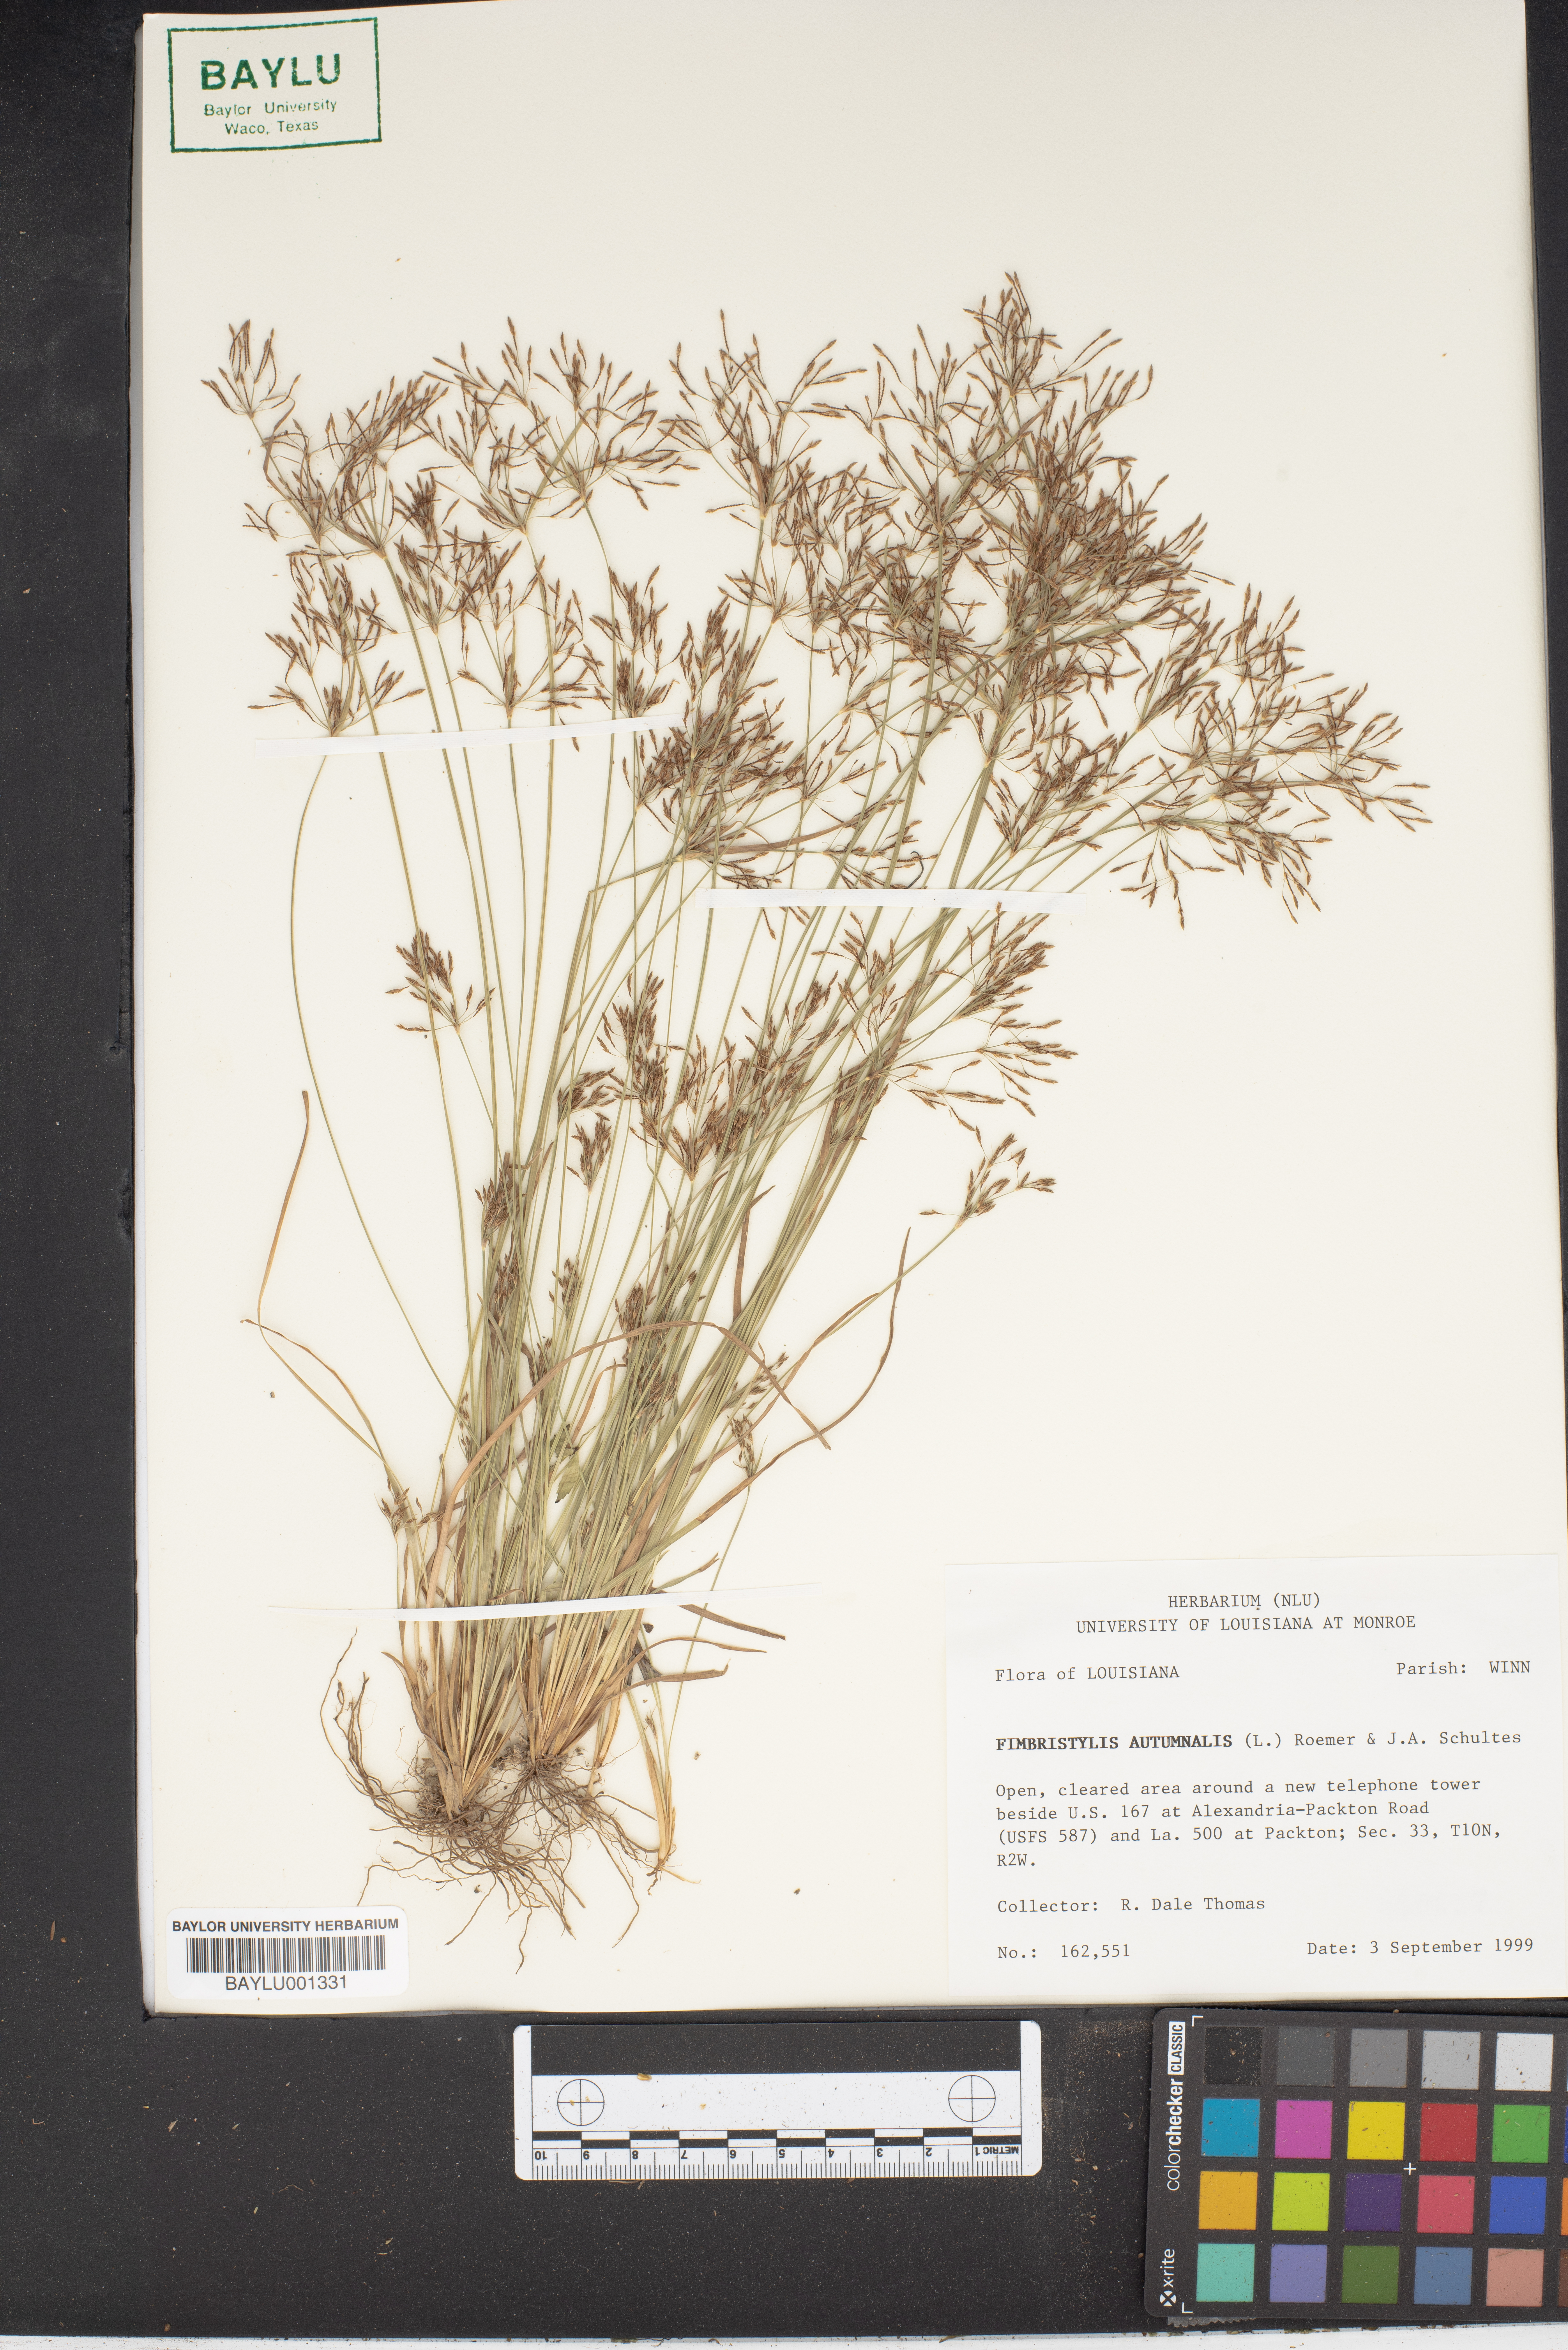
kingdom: Plantae
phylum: Tracheophyta
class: Liliopsida
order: Poales
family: Cyperaceae
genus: Fimbristylis
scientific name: Fimbristylis autumnalis
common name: Slender fimbristylis
